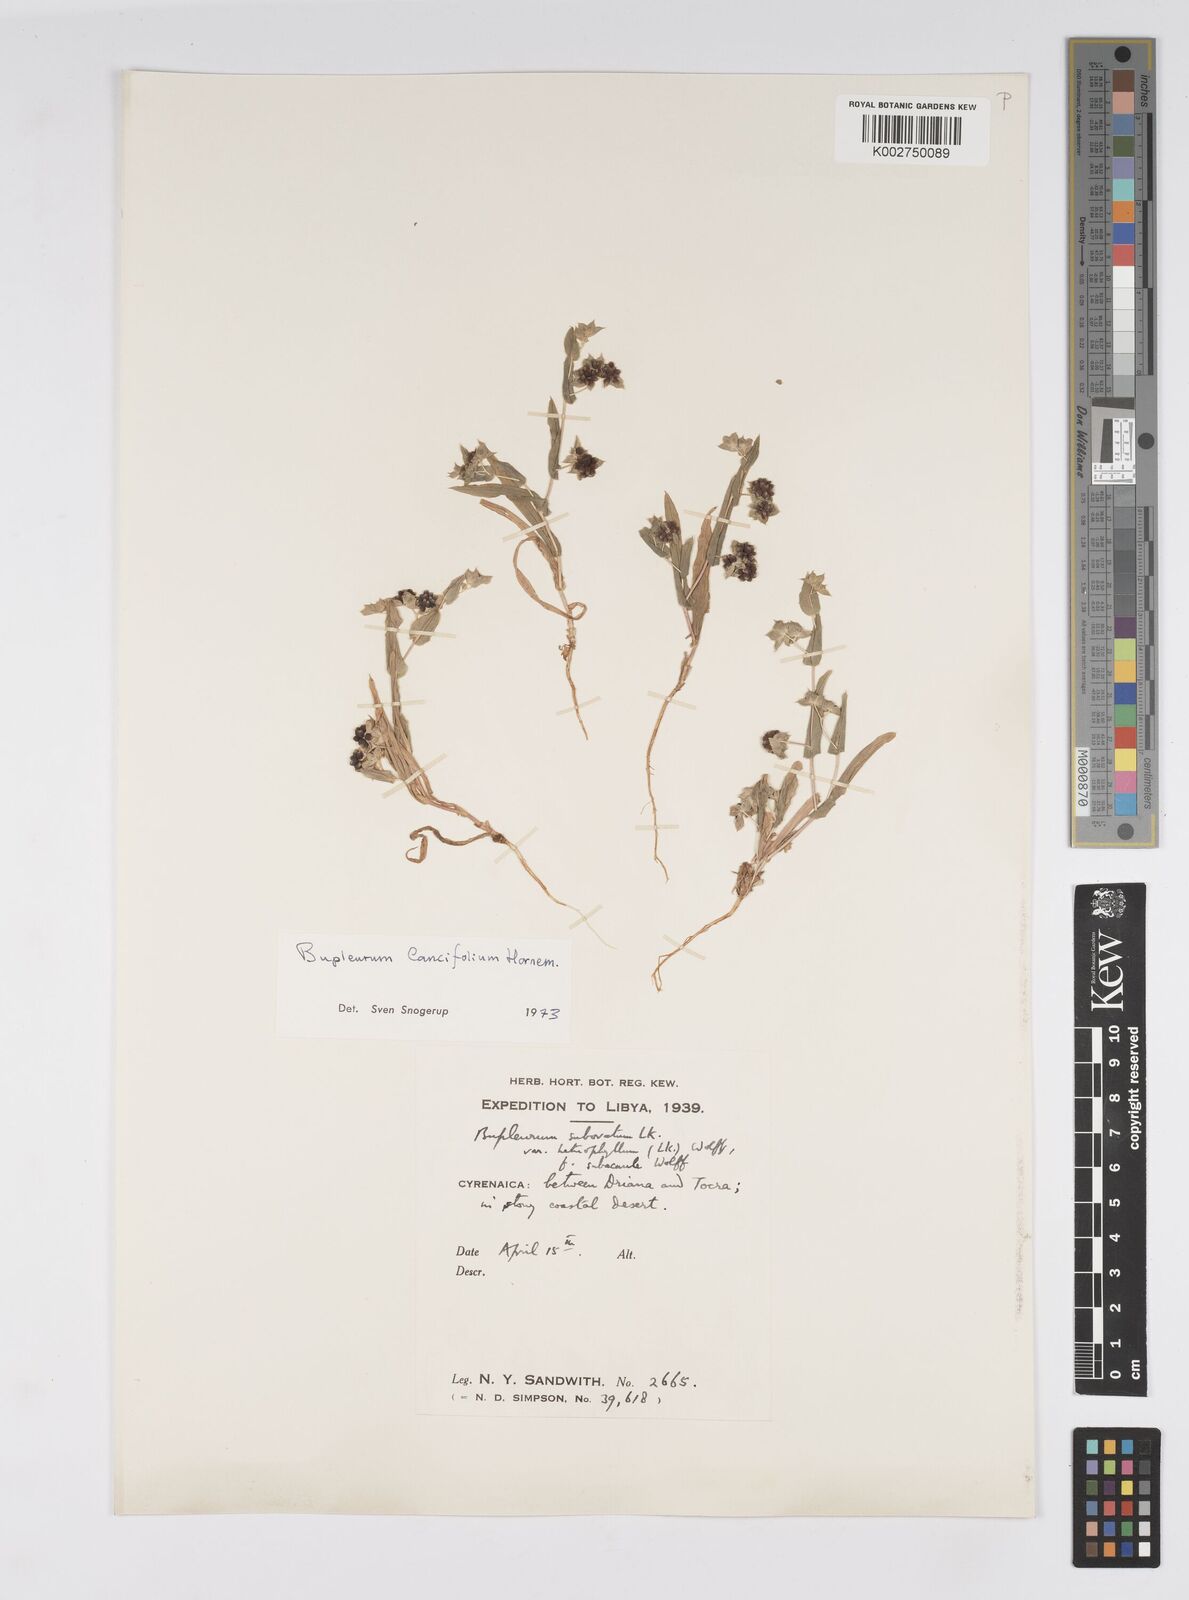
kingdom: Plantae
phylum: Tracheophyta
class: Magnoliopsida
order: Apiales
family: Apiaceae
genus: Bupleurum
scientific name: Bupleurum lancifolium
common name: False thorow-wax
